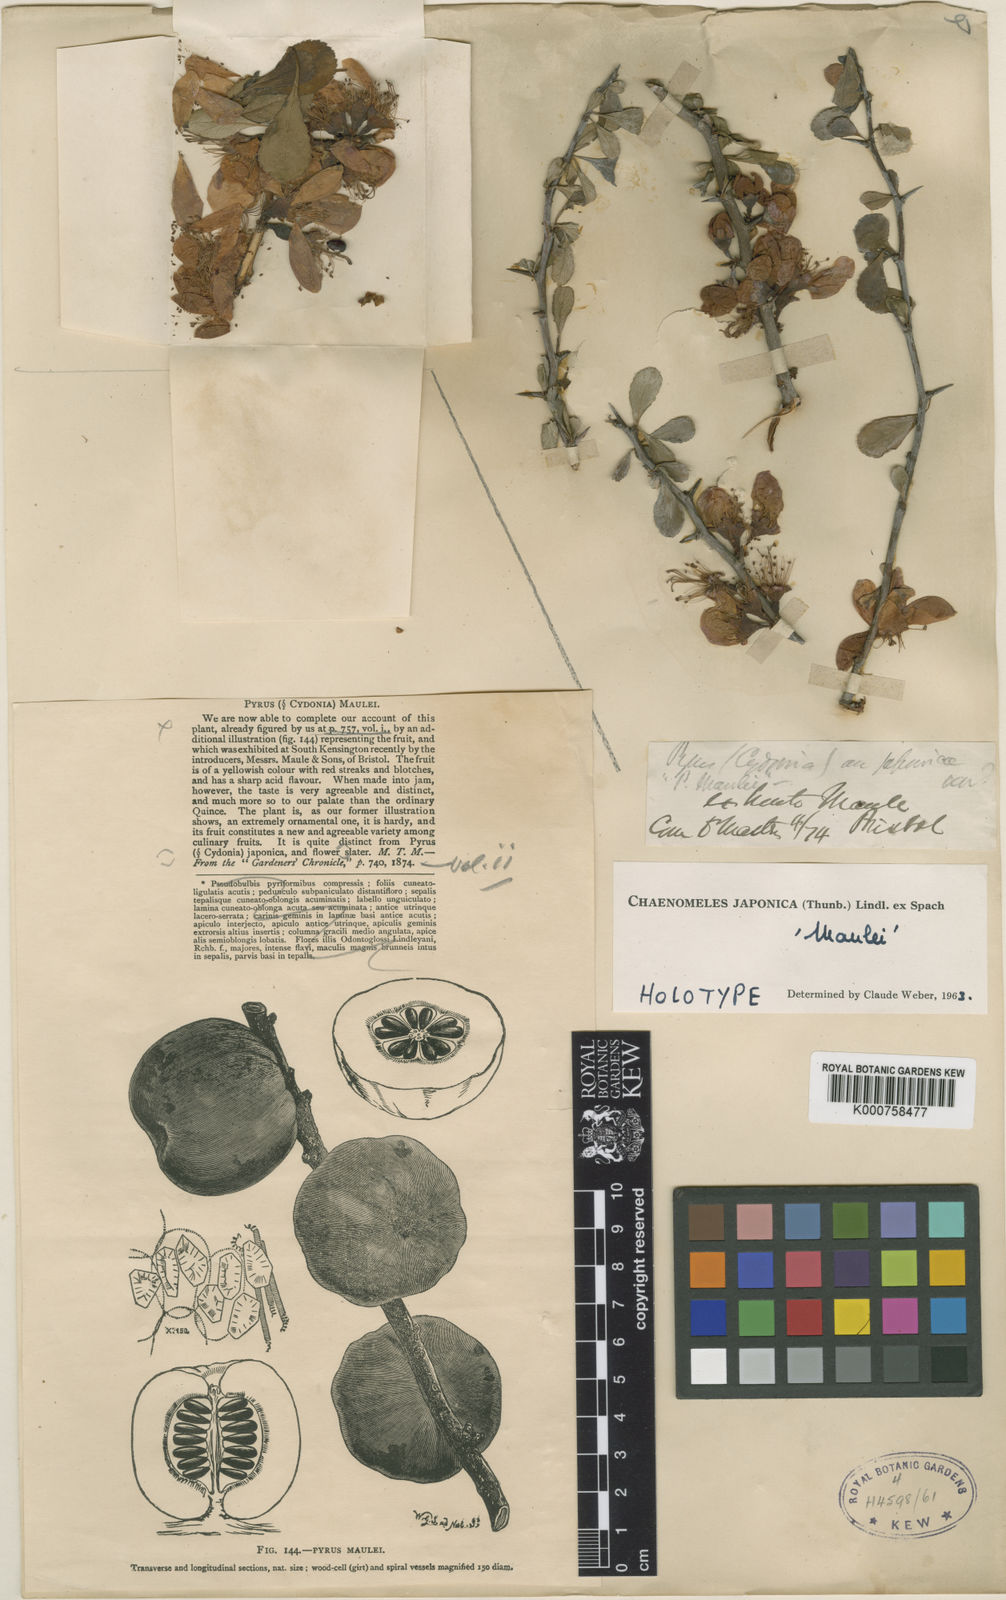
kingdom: Plantae
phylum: Tracheophyta
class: Magnoliopsida
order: Rosales
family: Rosaceae
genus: Chaenomeles
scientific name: Chaenomeles japonica
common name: Japanese quince
